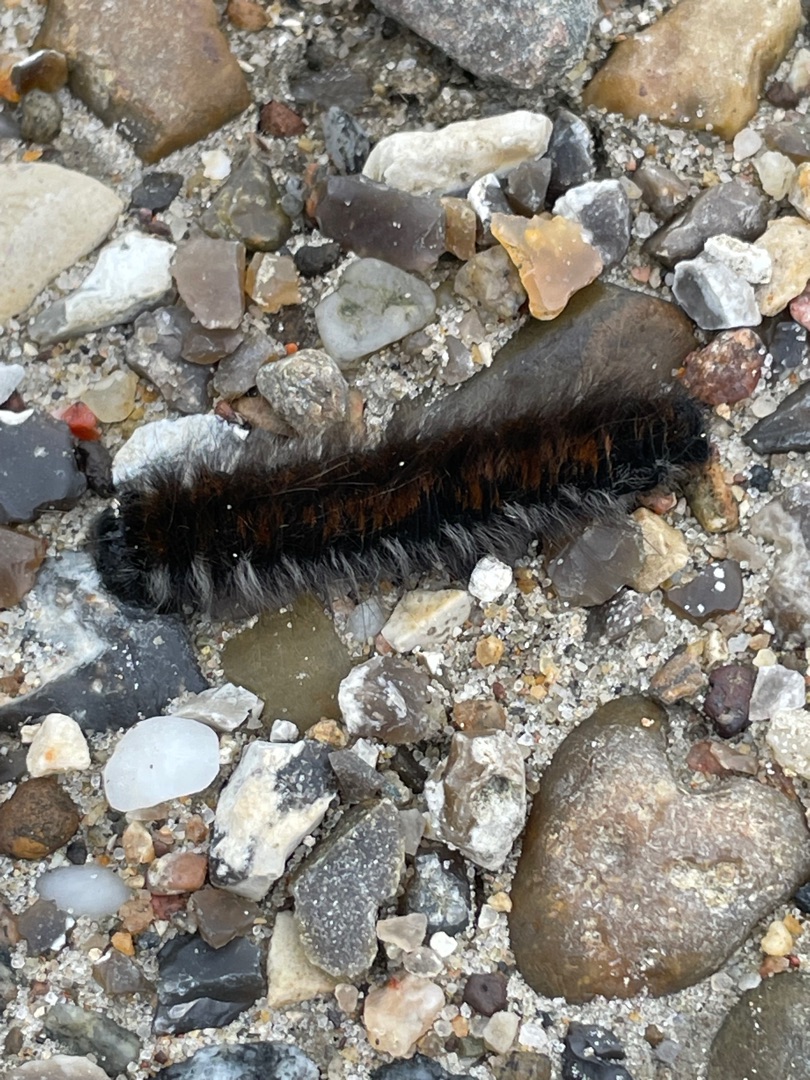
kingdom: Animalia
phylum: Arthropoda
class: Insecta
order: Lepidoptera
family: Lasiocampidae
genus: Macrothylacia
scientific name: Macrothylacia rubi
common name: Brombærspinder
